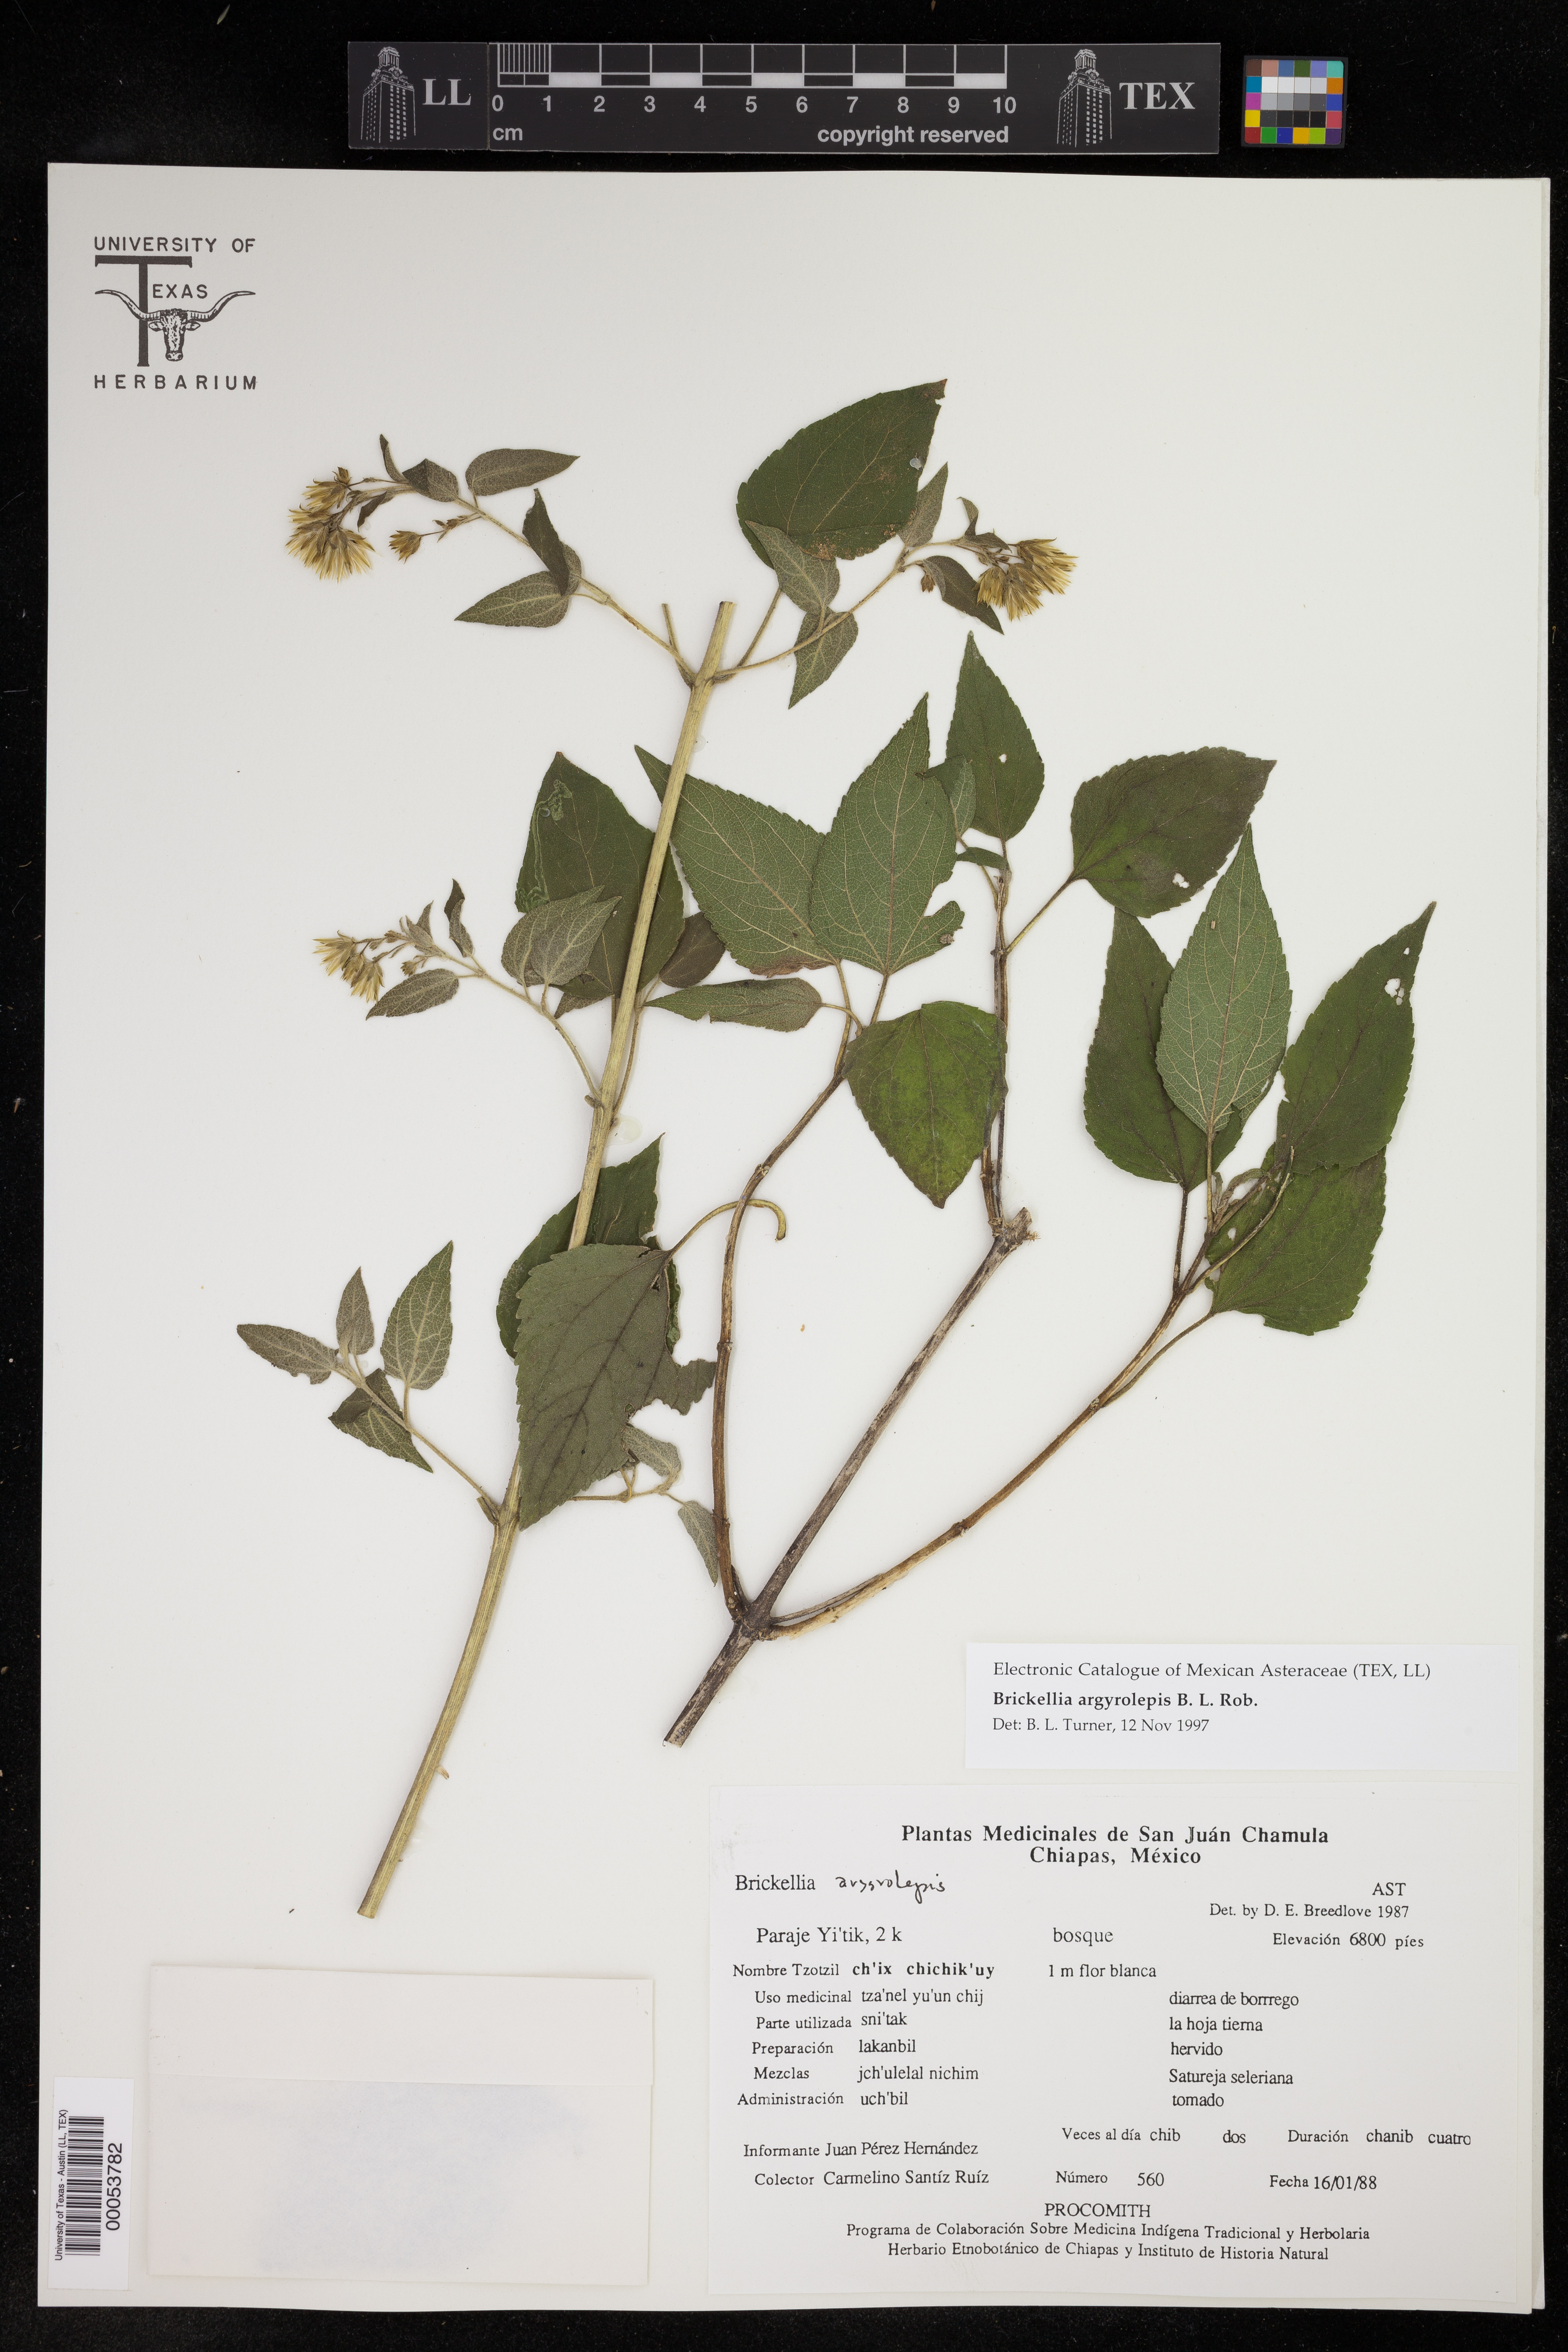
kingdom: Plantae
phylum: Tracheophyta
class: Magnoliopsida
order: Asterales
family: Asteraceae
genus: Brickellia
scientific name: Brickellia argyrolepis
